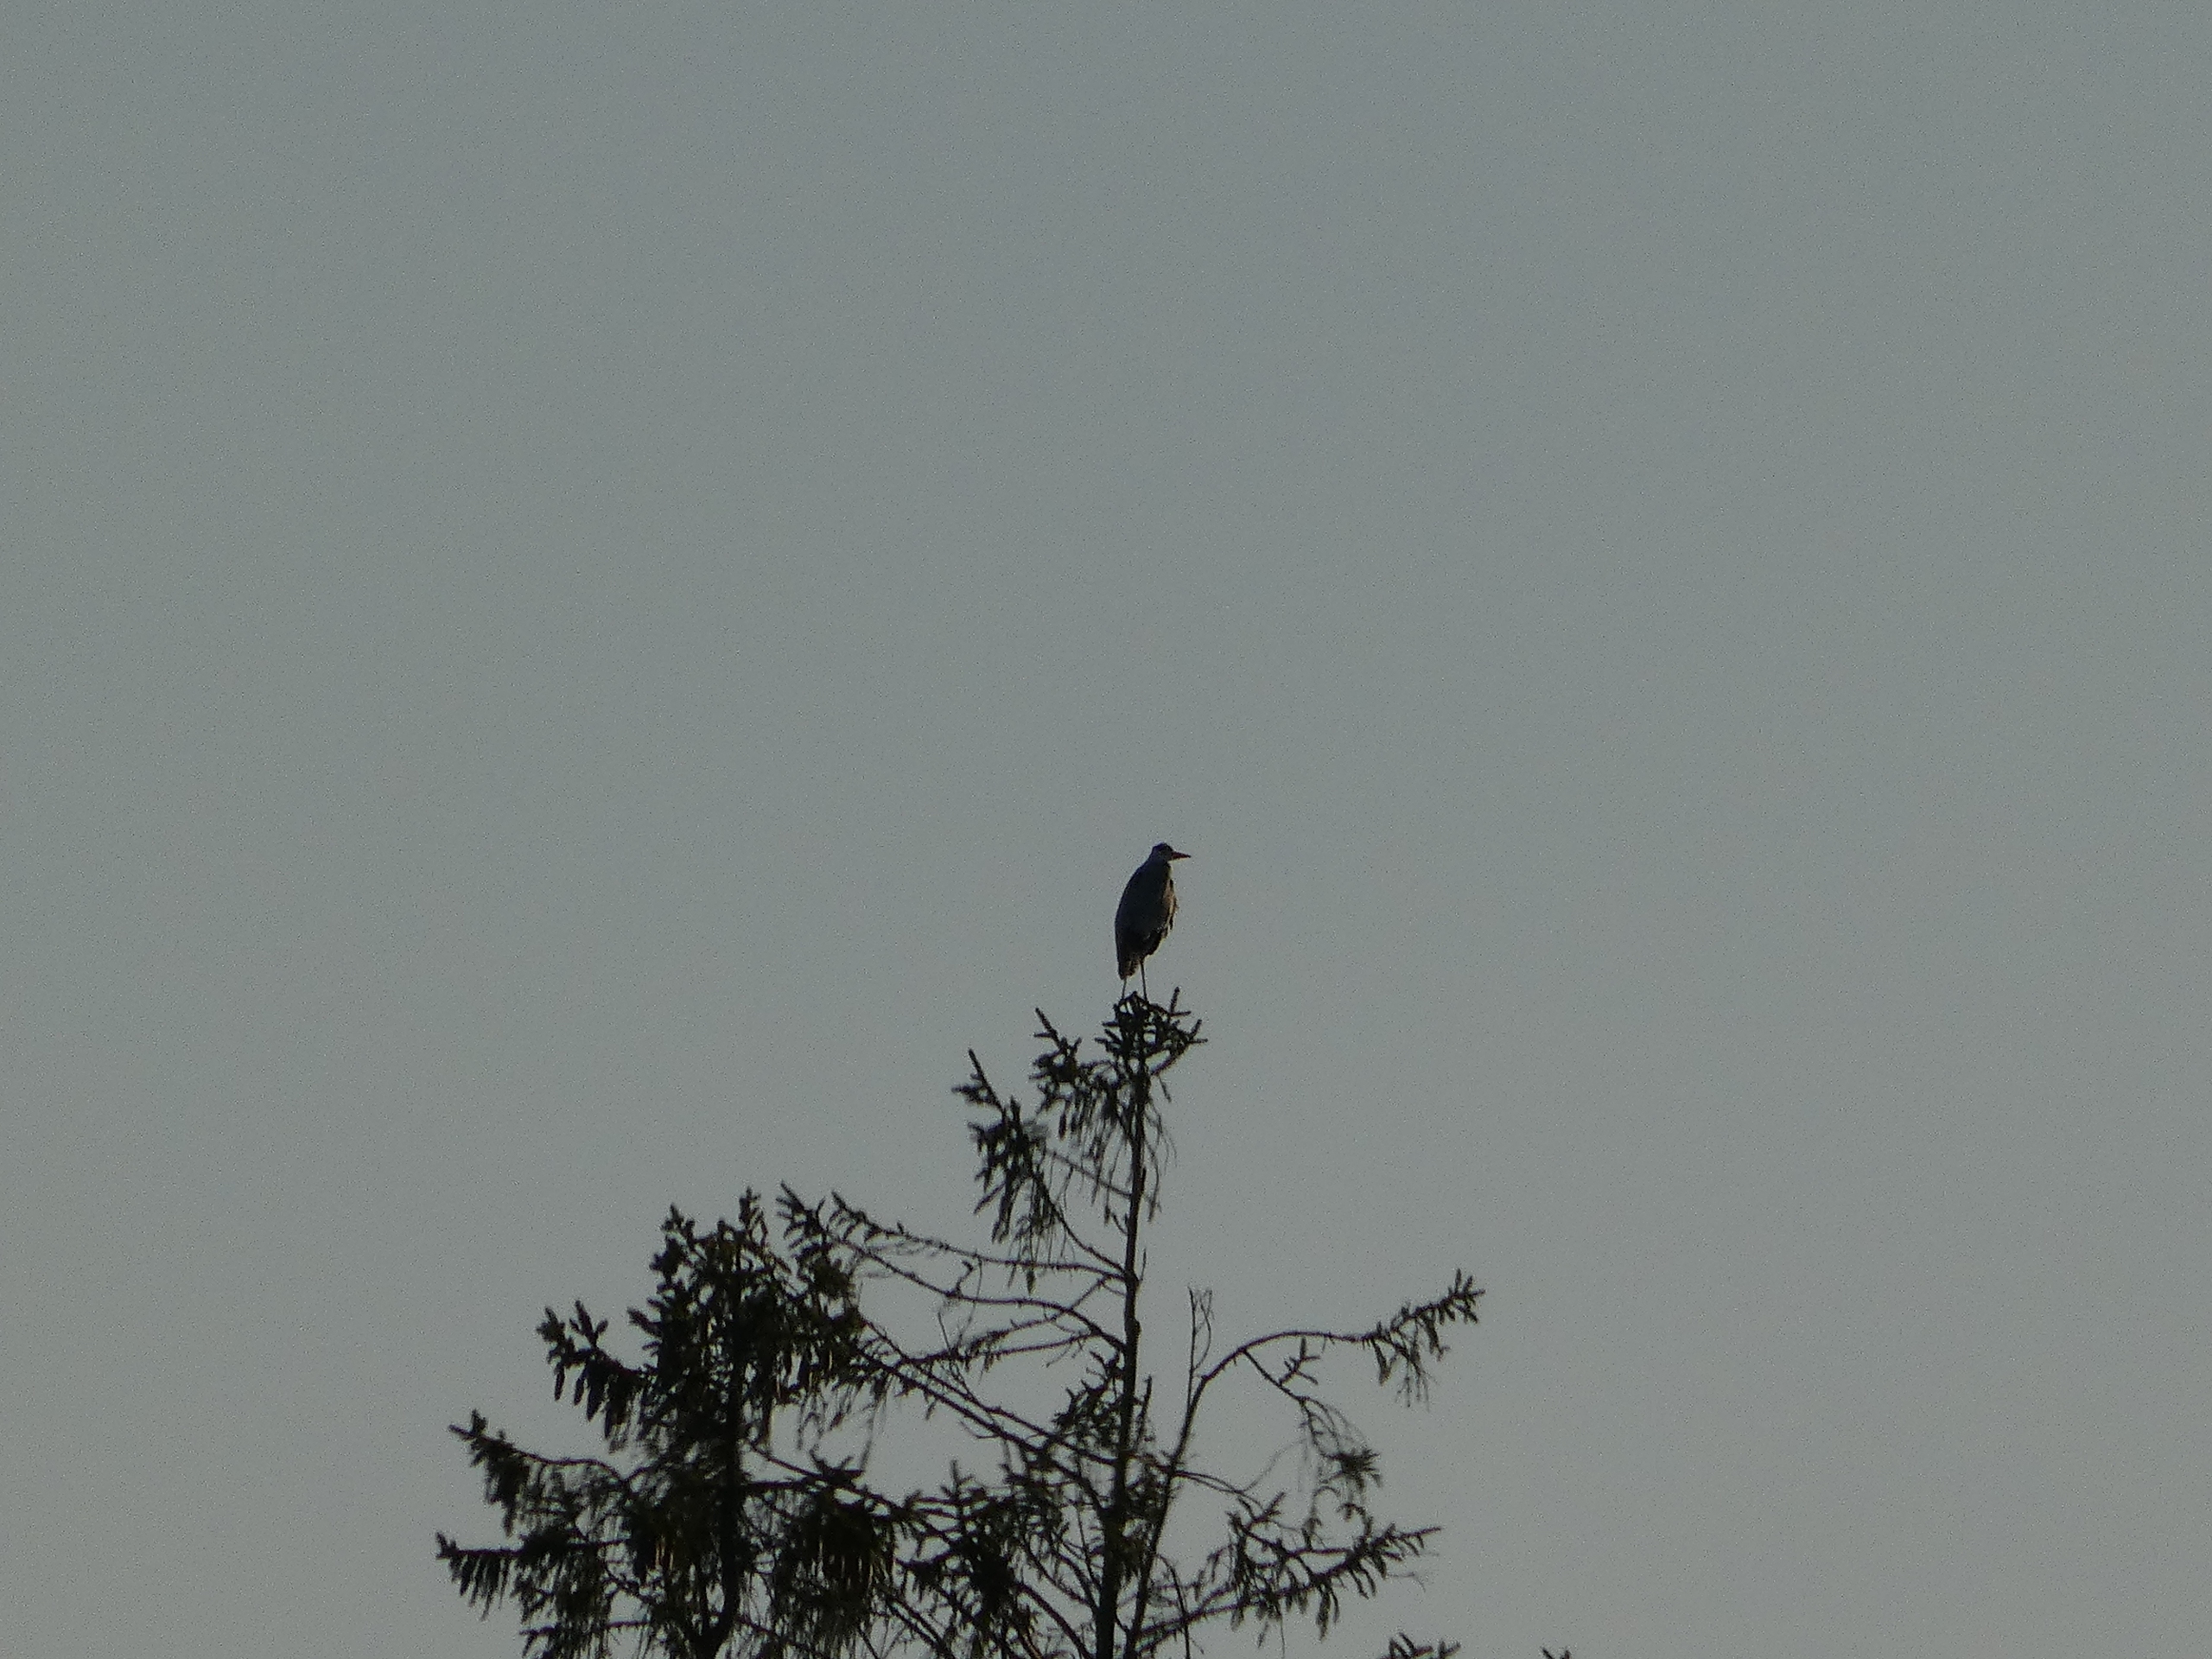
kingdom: Animalia
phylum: Chordata
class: Aves
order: Pelecaniformes
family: Ardeidae
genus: Ardea
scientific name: Ardea cinerea
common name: Fiskehejre
